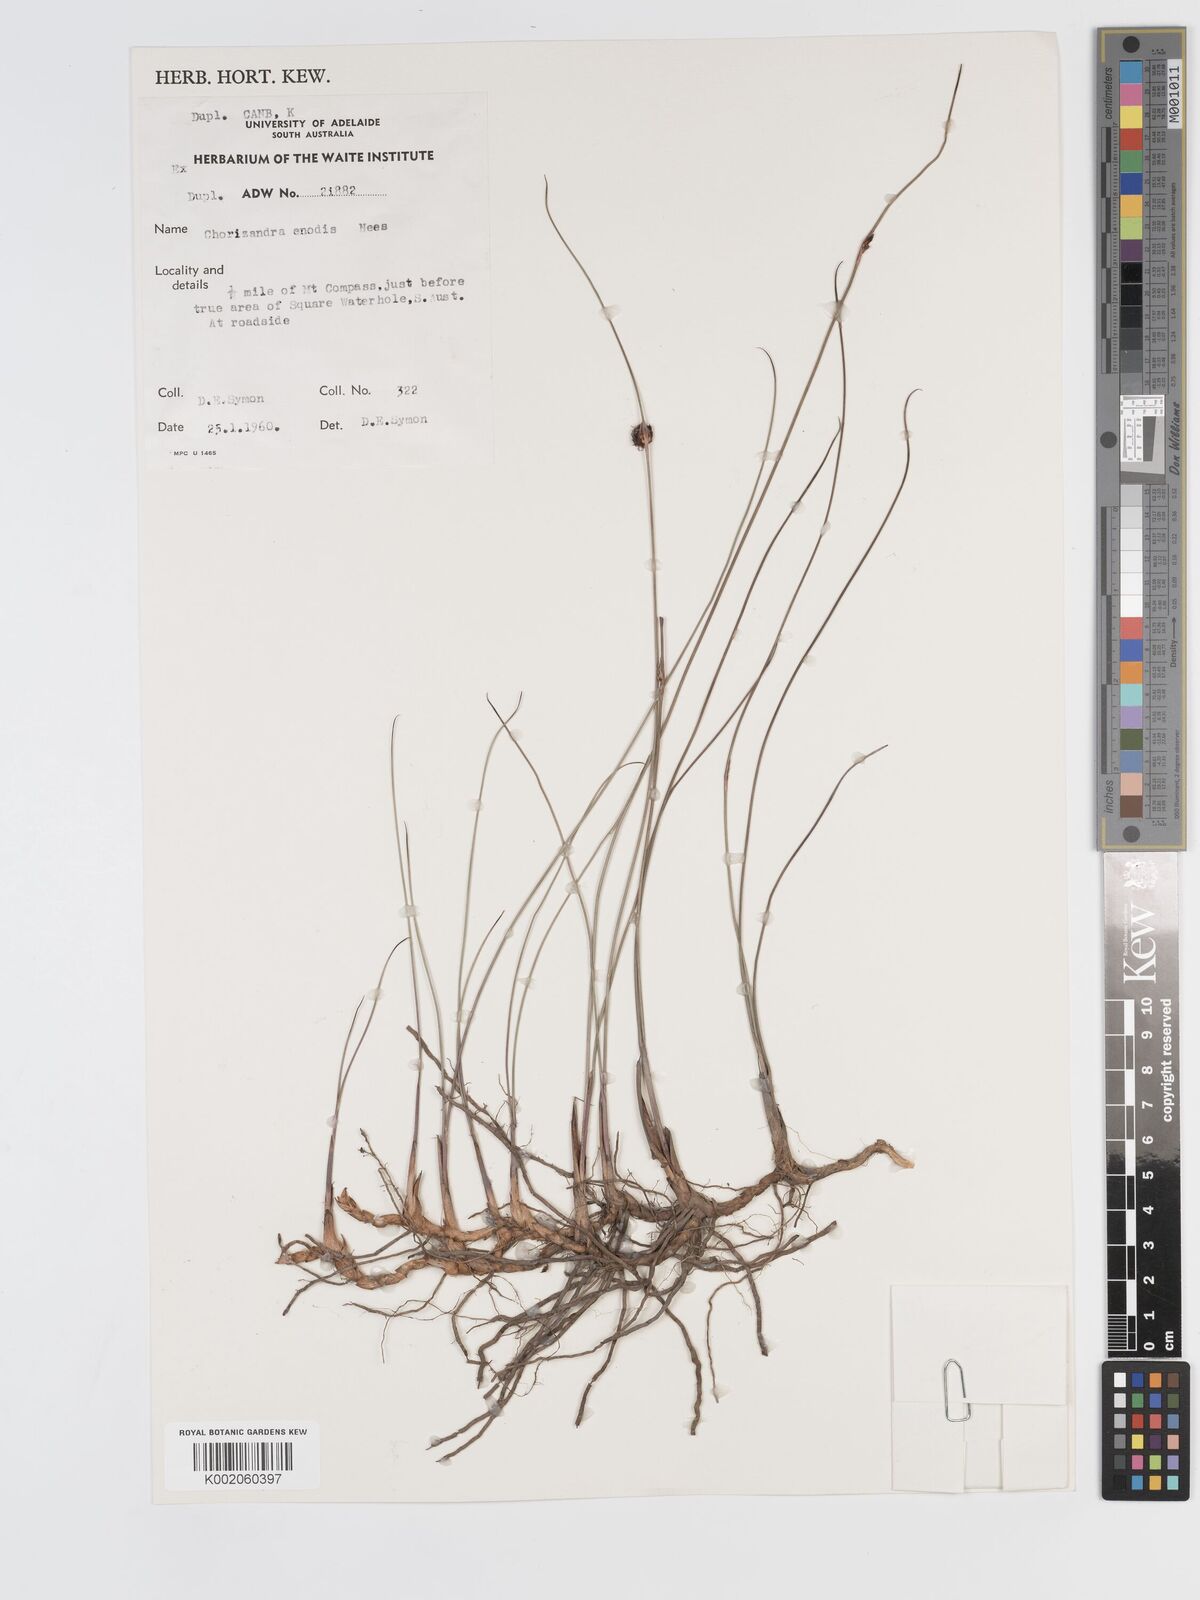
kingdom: Plantae
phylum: Tracheophyta
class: Liliopsida
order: Poales
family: Cyperaceae
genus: Chorizandra
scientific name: Chorizandra enodis
